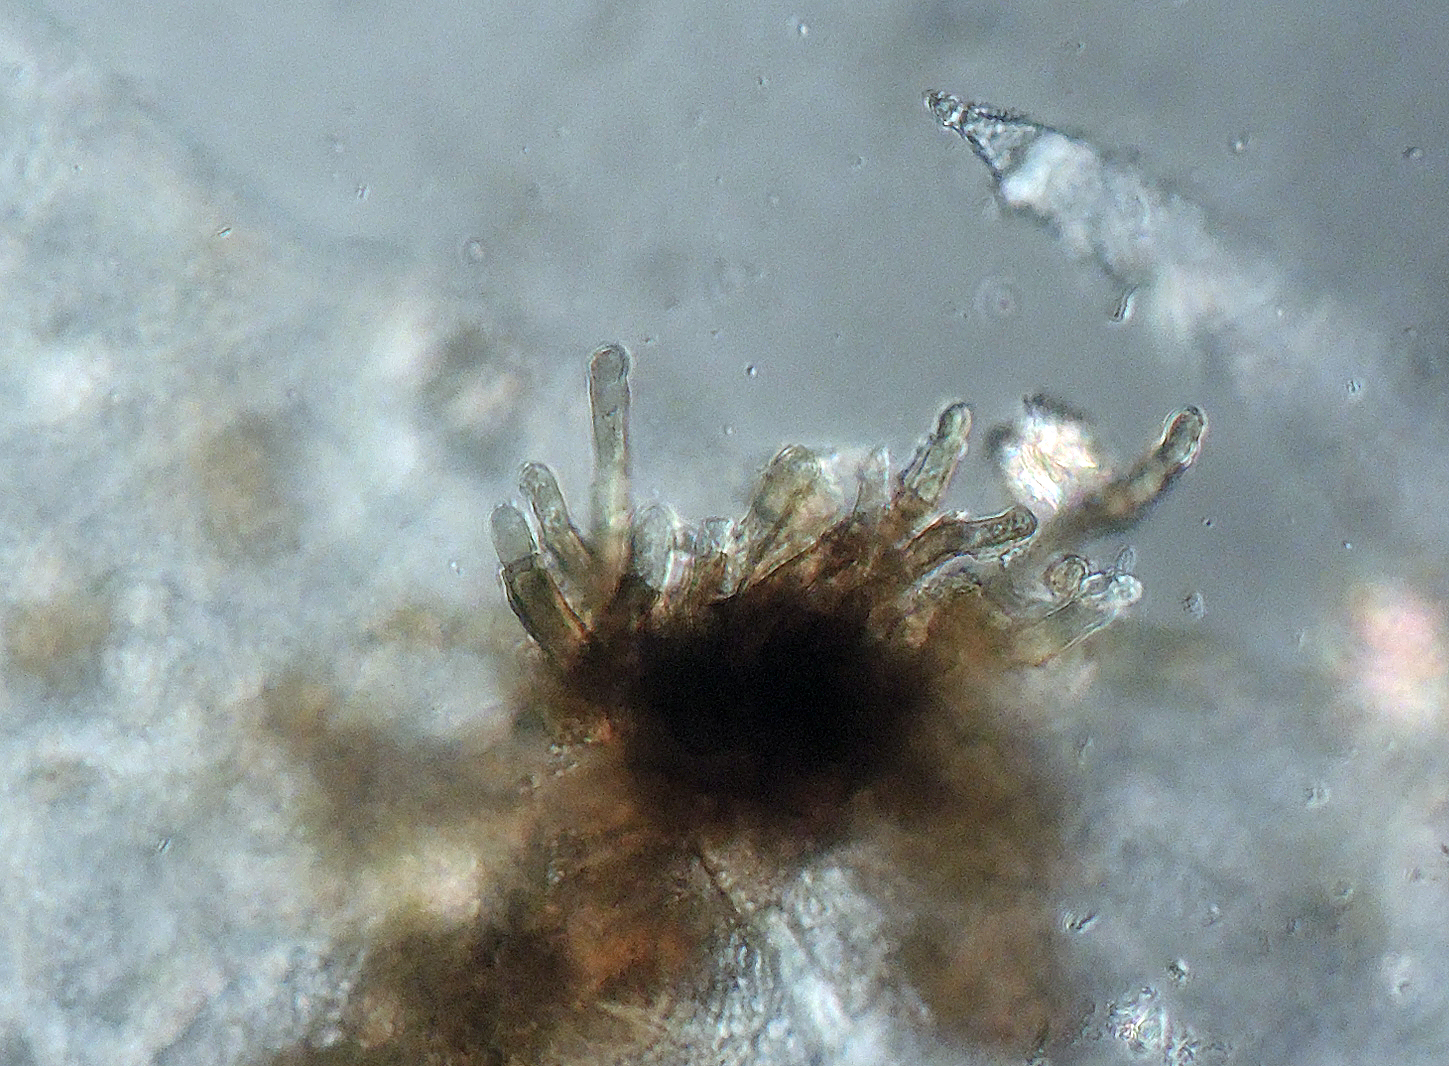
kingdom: Fungi
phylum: Ascomycota
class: Dothideomycetes
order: Mycosphaerellales
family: Mycosphaerellaceae
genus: Stigmina
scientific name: Stigmina carpophila
